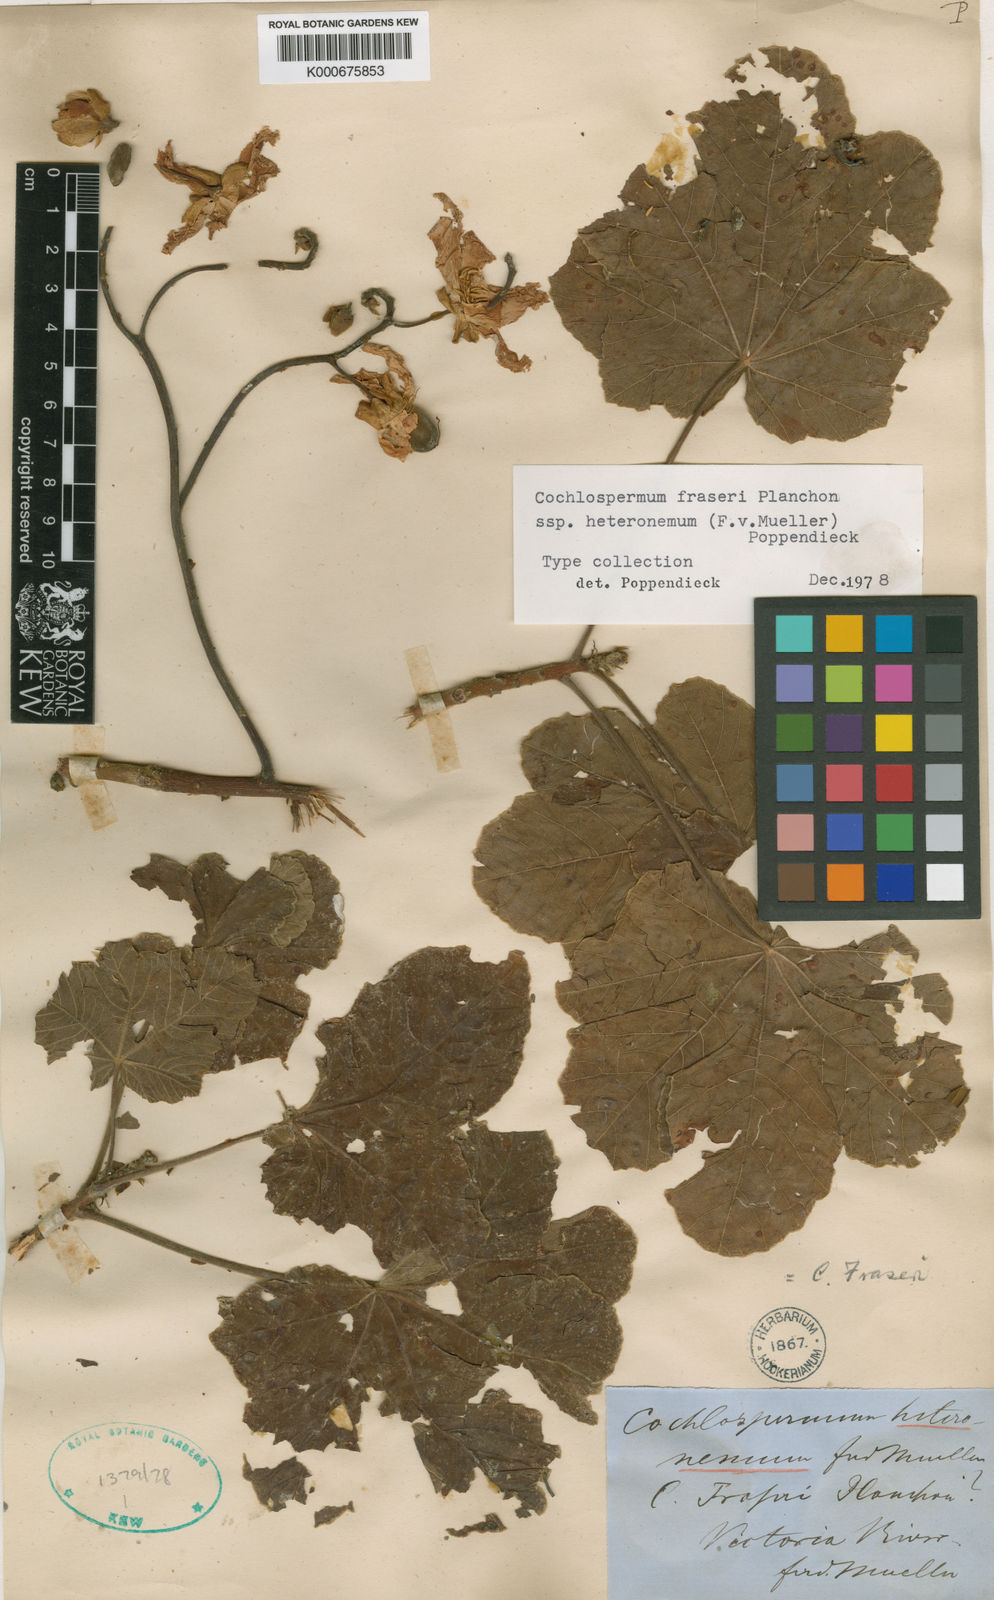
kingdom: Plantae
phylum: Tracheophyta
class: Magnoliopsida
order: Malvales
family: Cochlospermaceae
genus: Cochlospermum
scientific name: Cochlospermum fraseri
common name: Kapokbush
